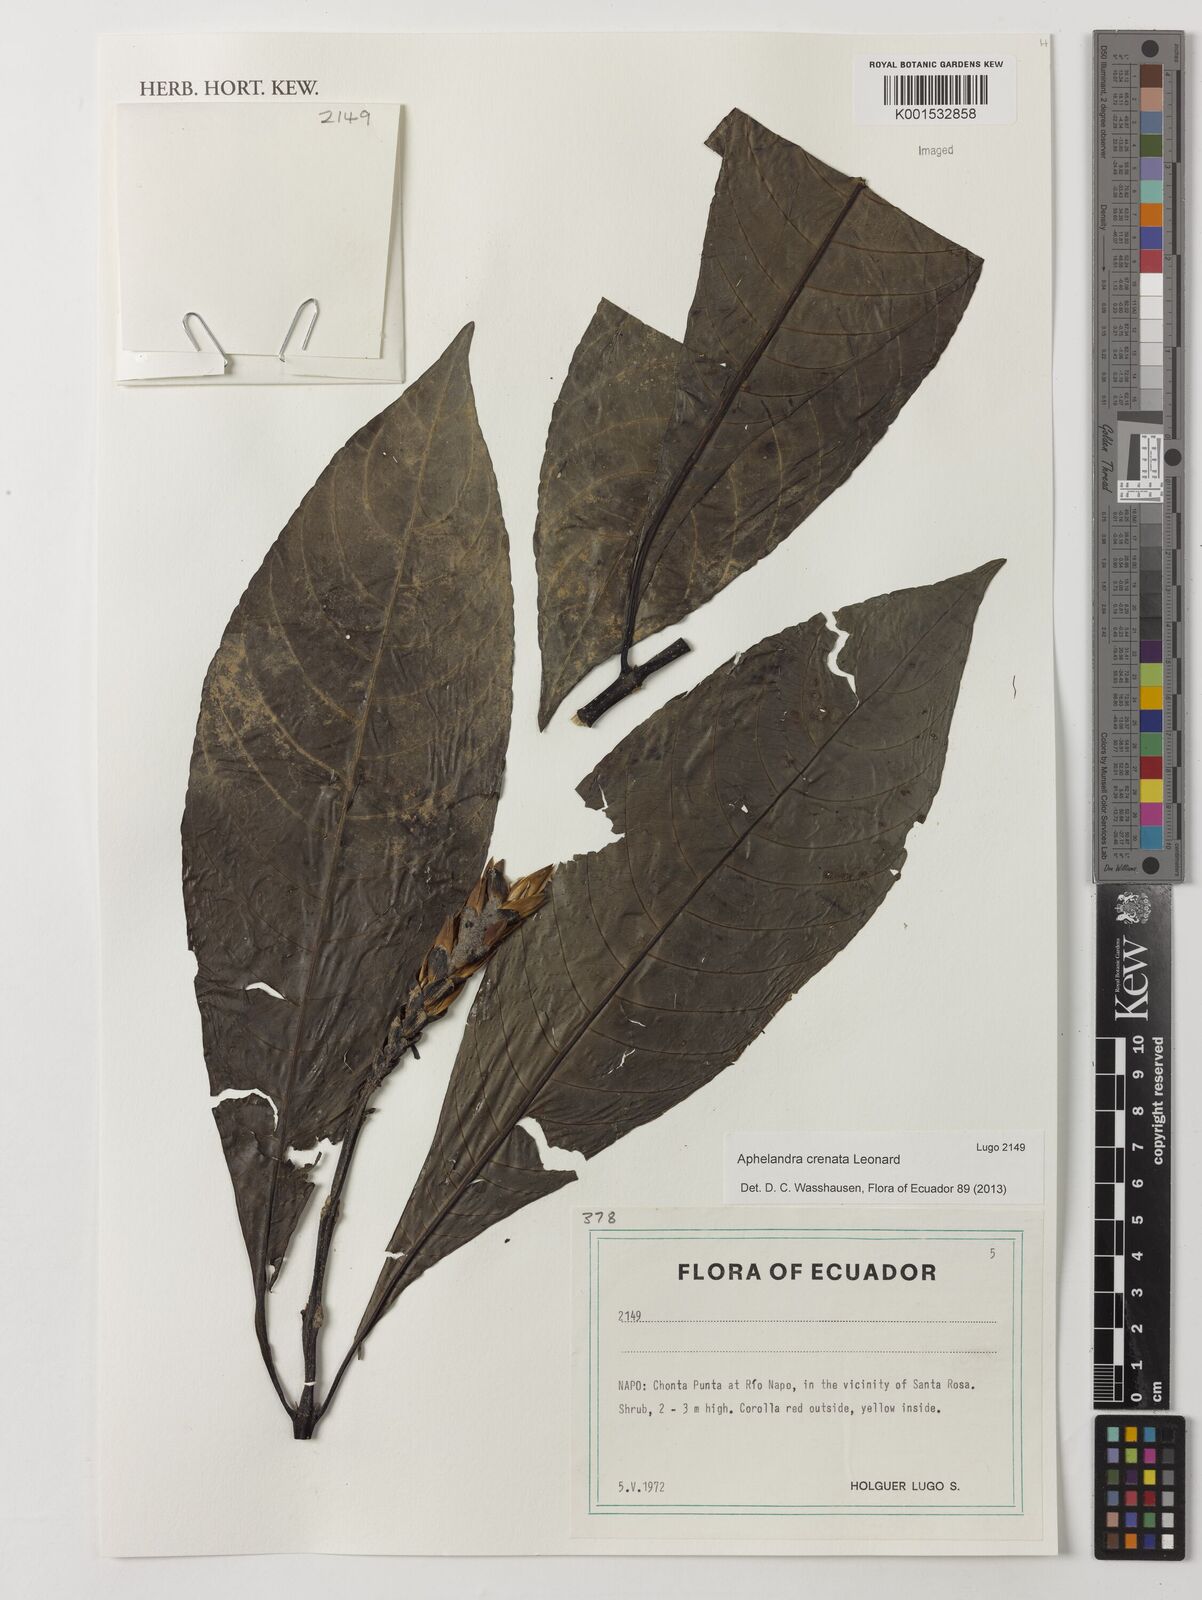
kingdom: Plantae
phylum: Tracheophyta
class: Magnoliopsida
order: Lamiales
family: Acanthaceae
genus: Aphelandra
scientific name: Aphelandra crenata
